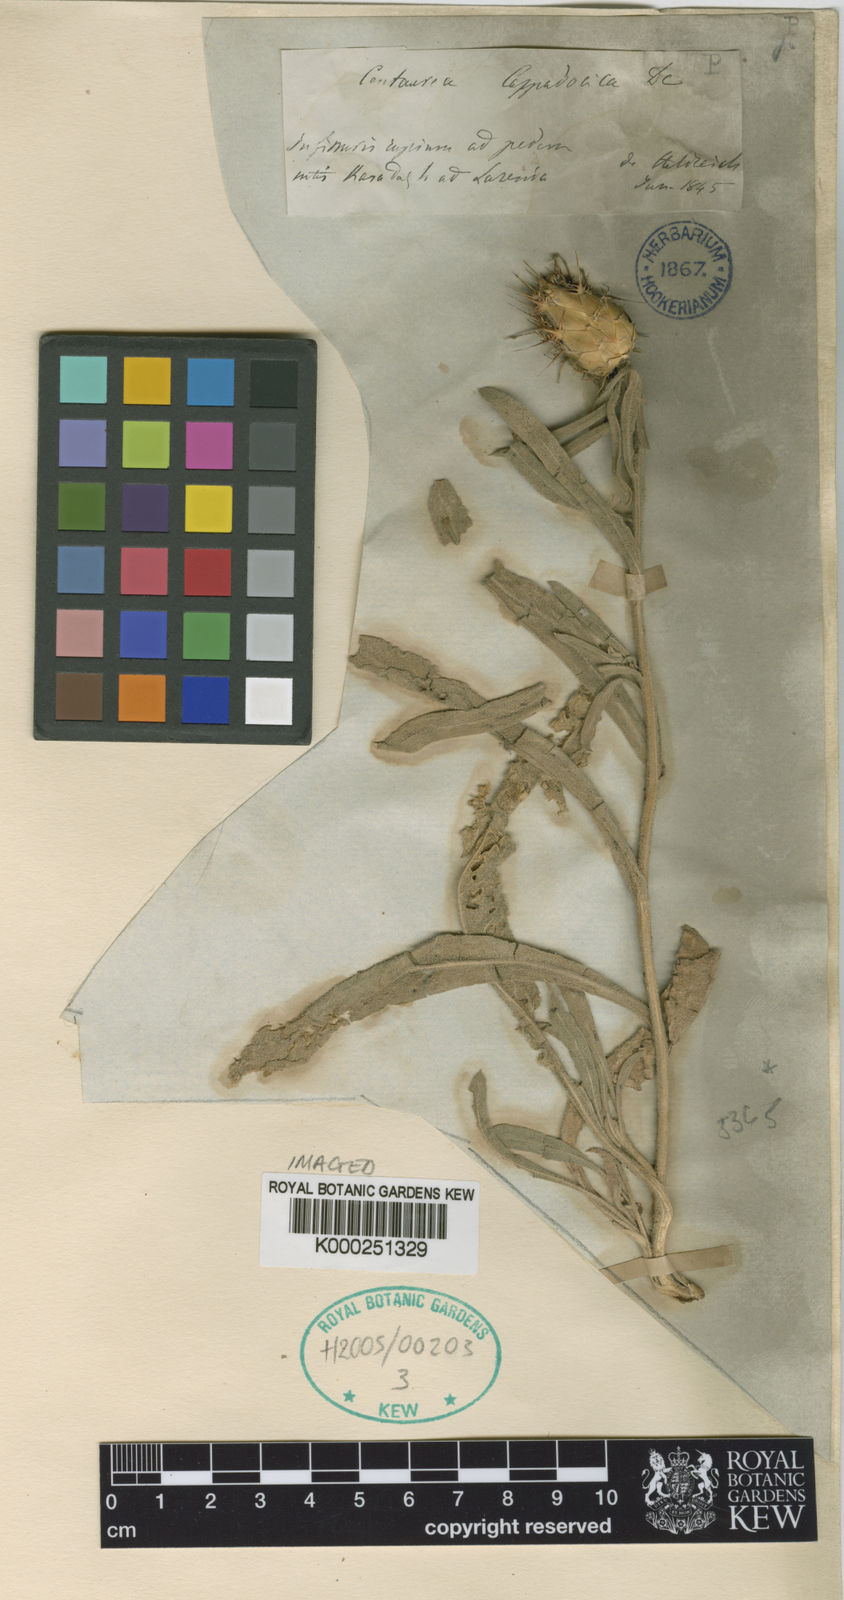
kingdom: Plantae
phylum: Tracheophyta
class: Magnoliopsida
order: Asterales
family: Asteraceae
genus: Centaurea
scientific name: Centaurea kotschyi
